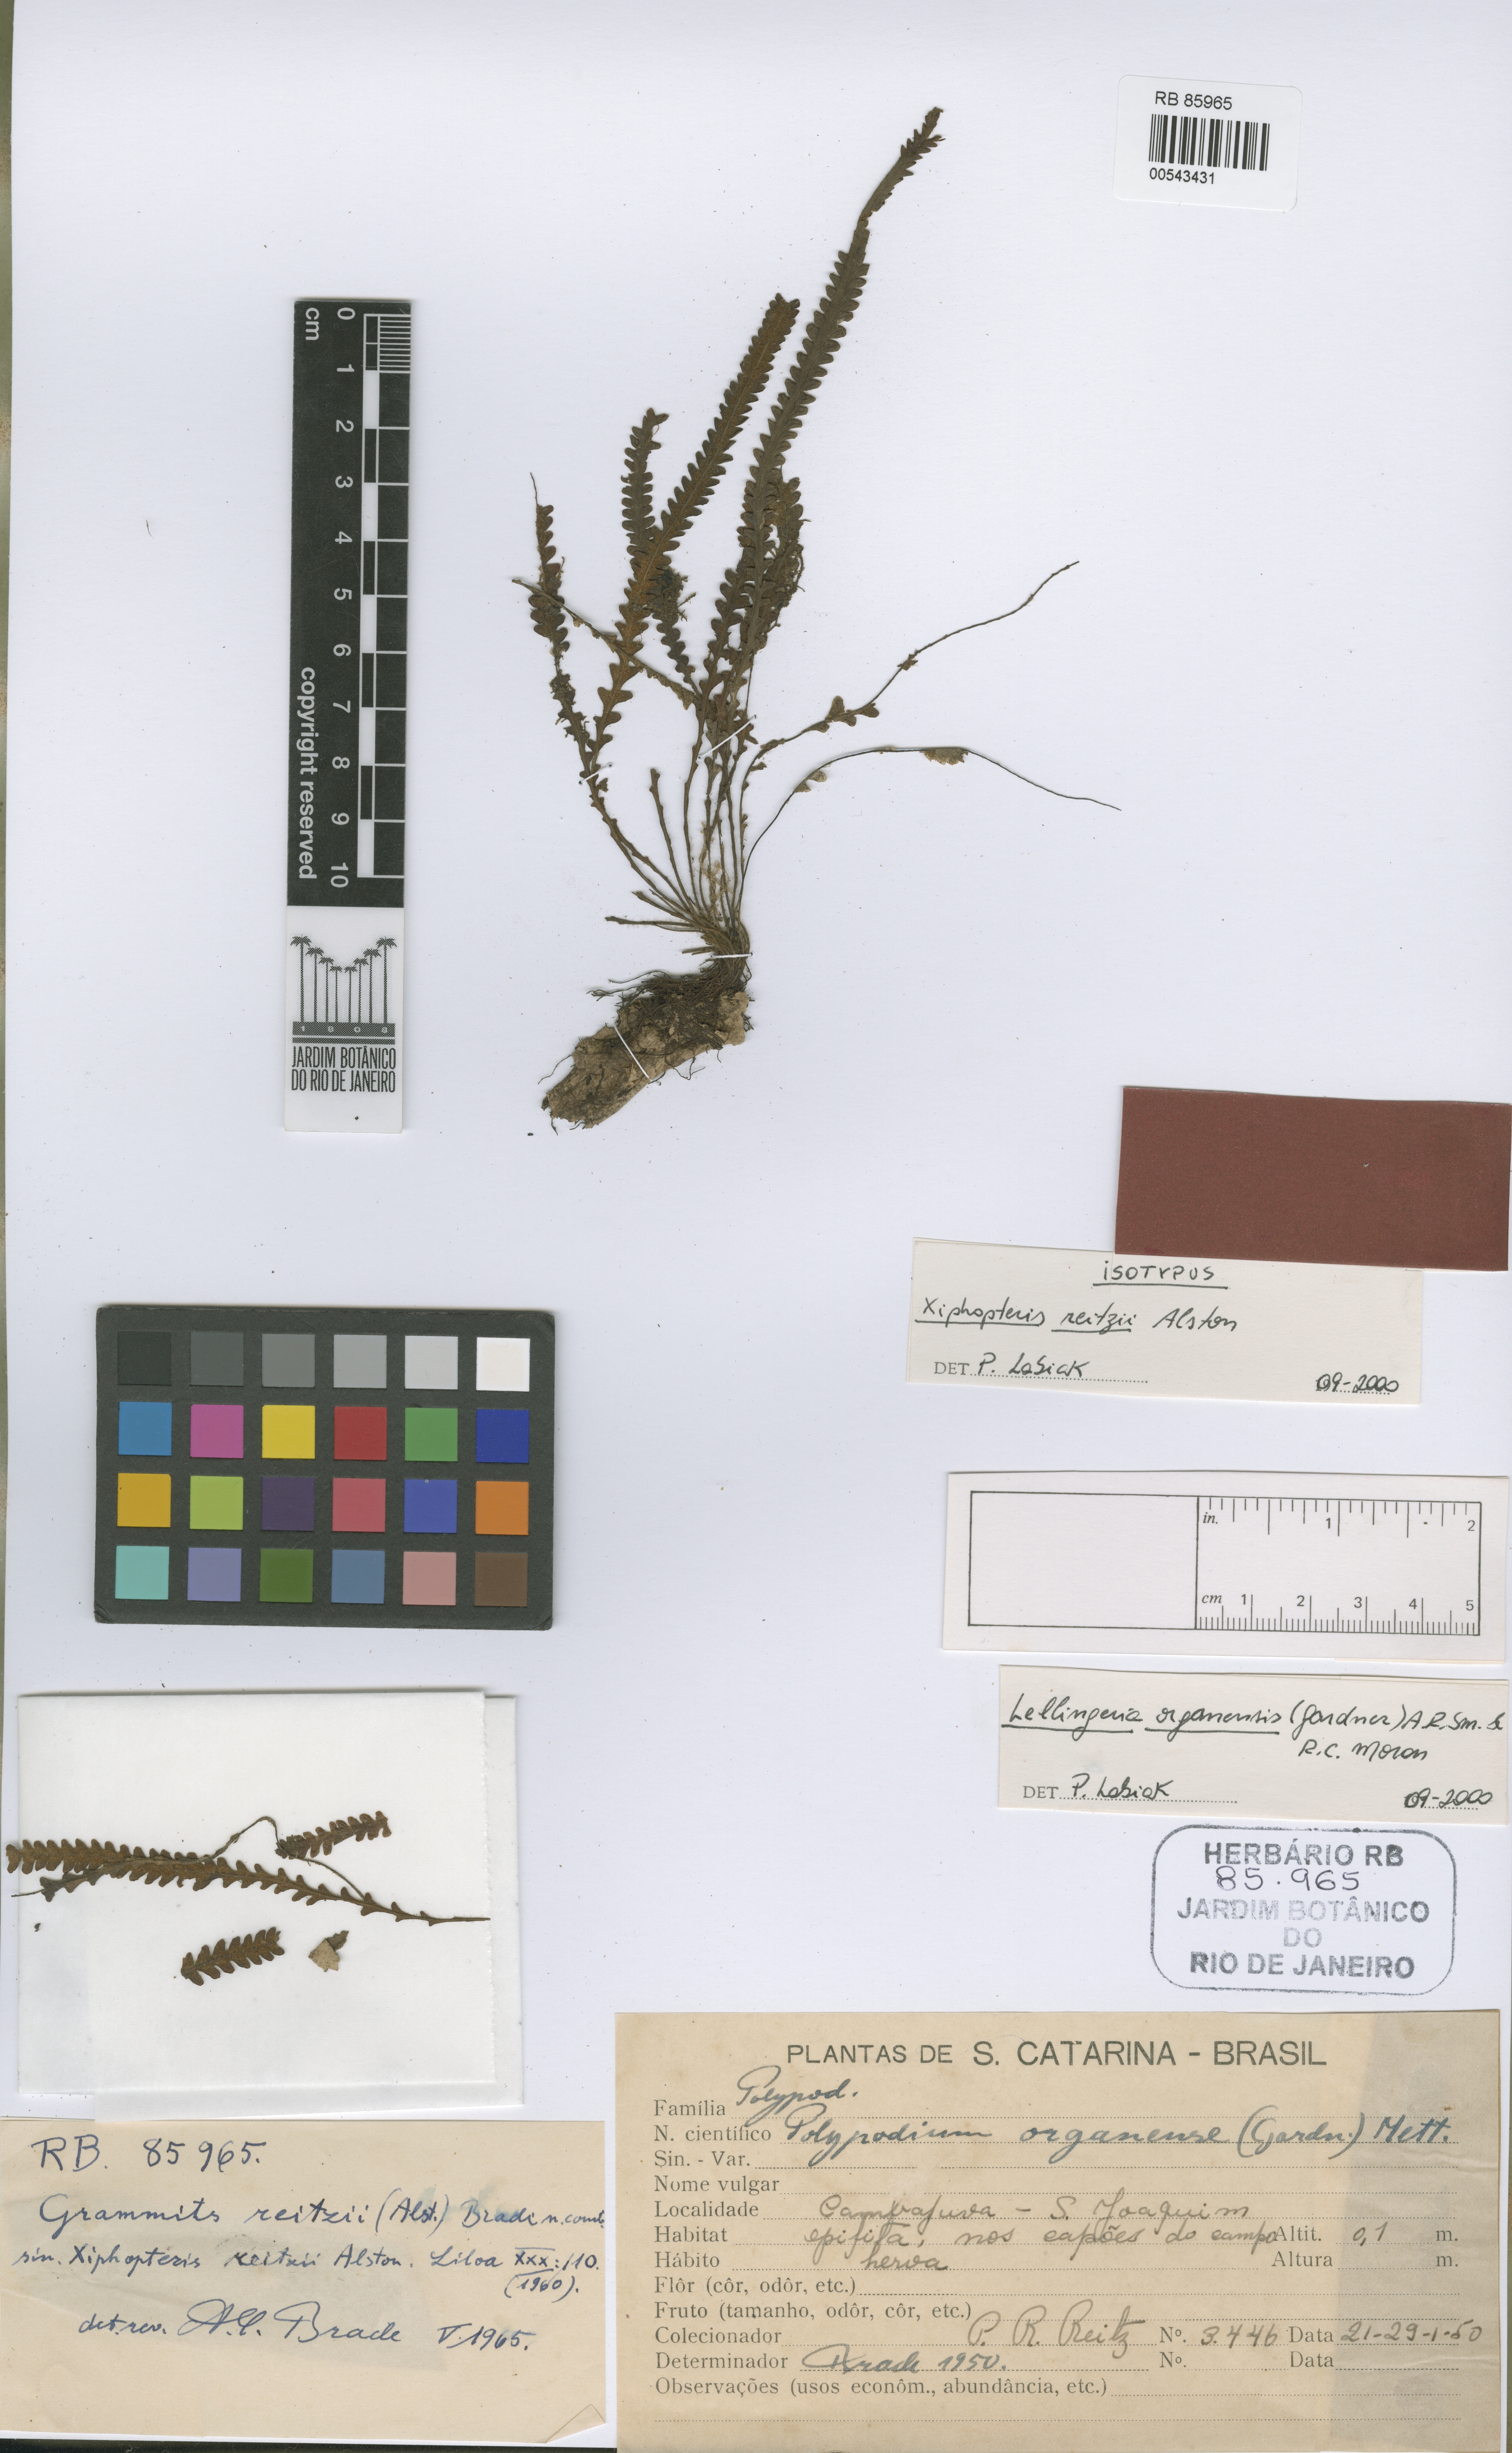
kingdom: Plantae
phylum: Tracheophyta
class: Polypodiopsida
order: Polypodiales
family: Polypodiaceae
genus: Leucotrichum
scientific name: Leucotrichum organense
